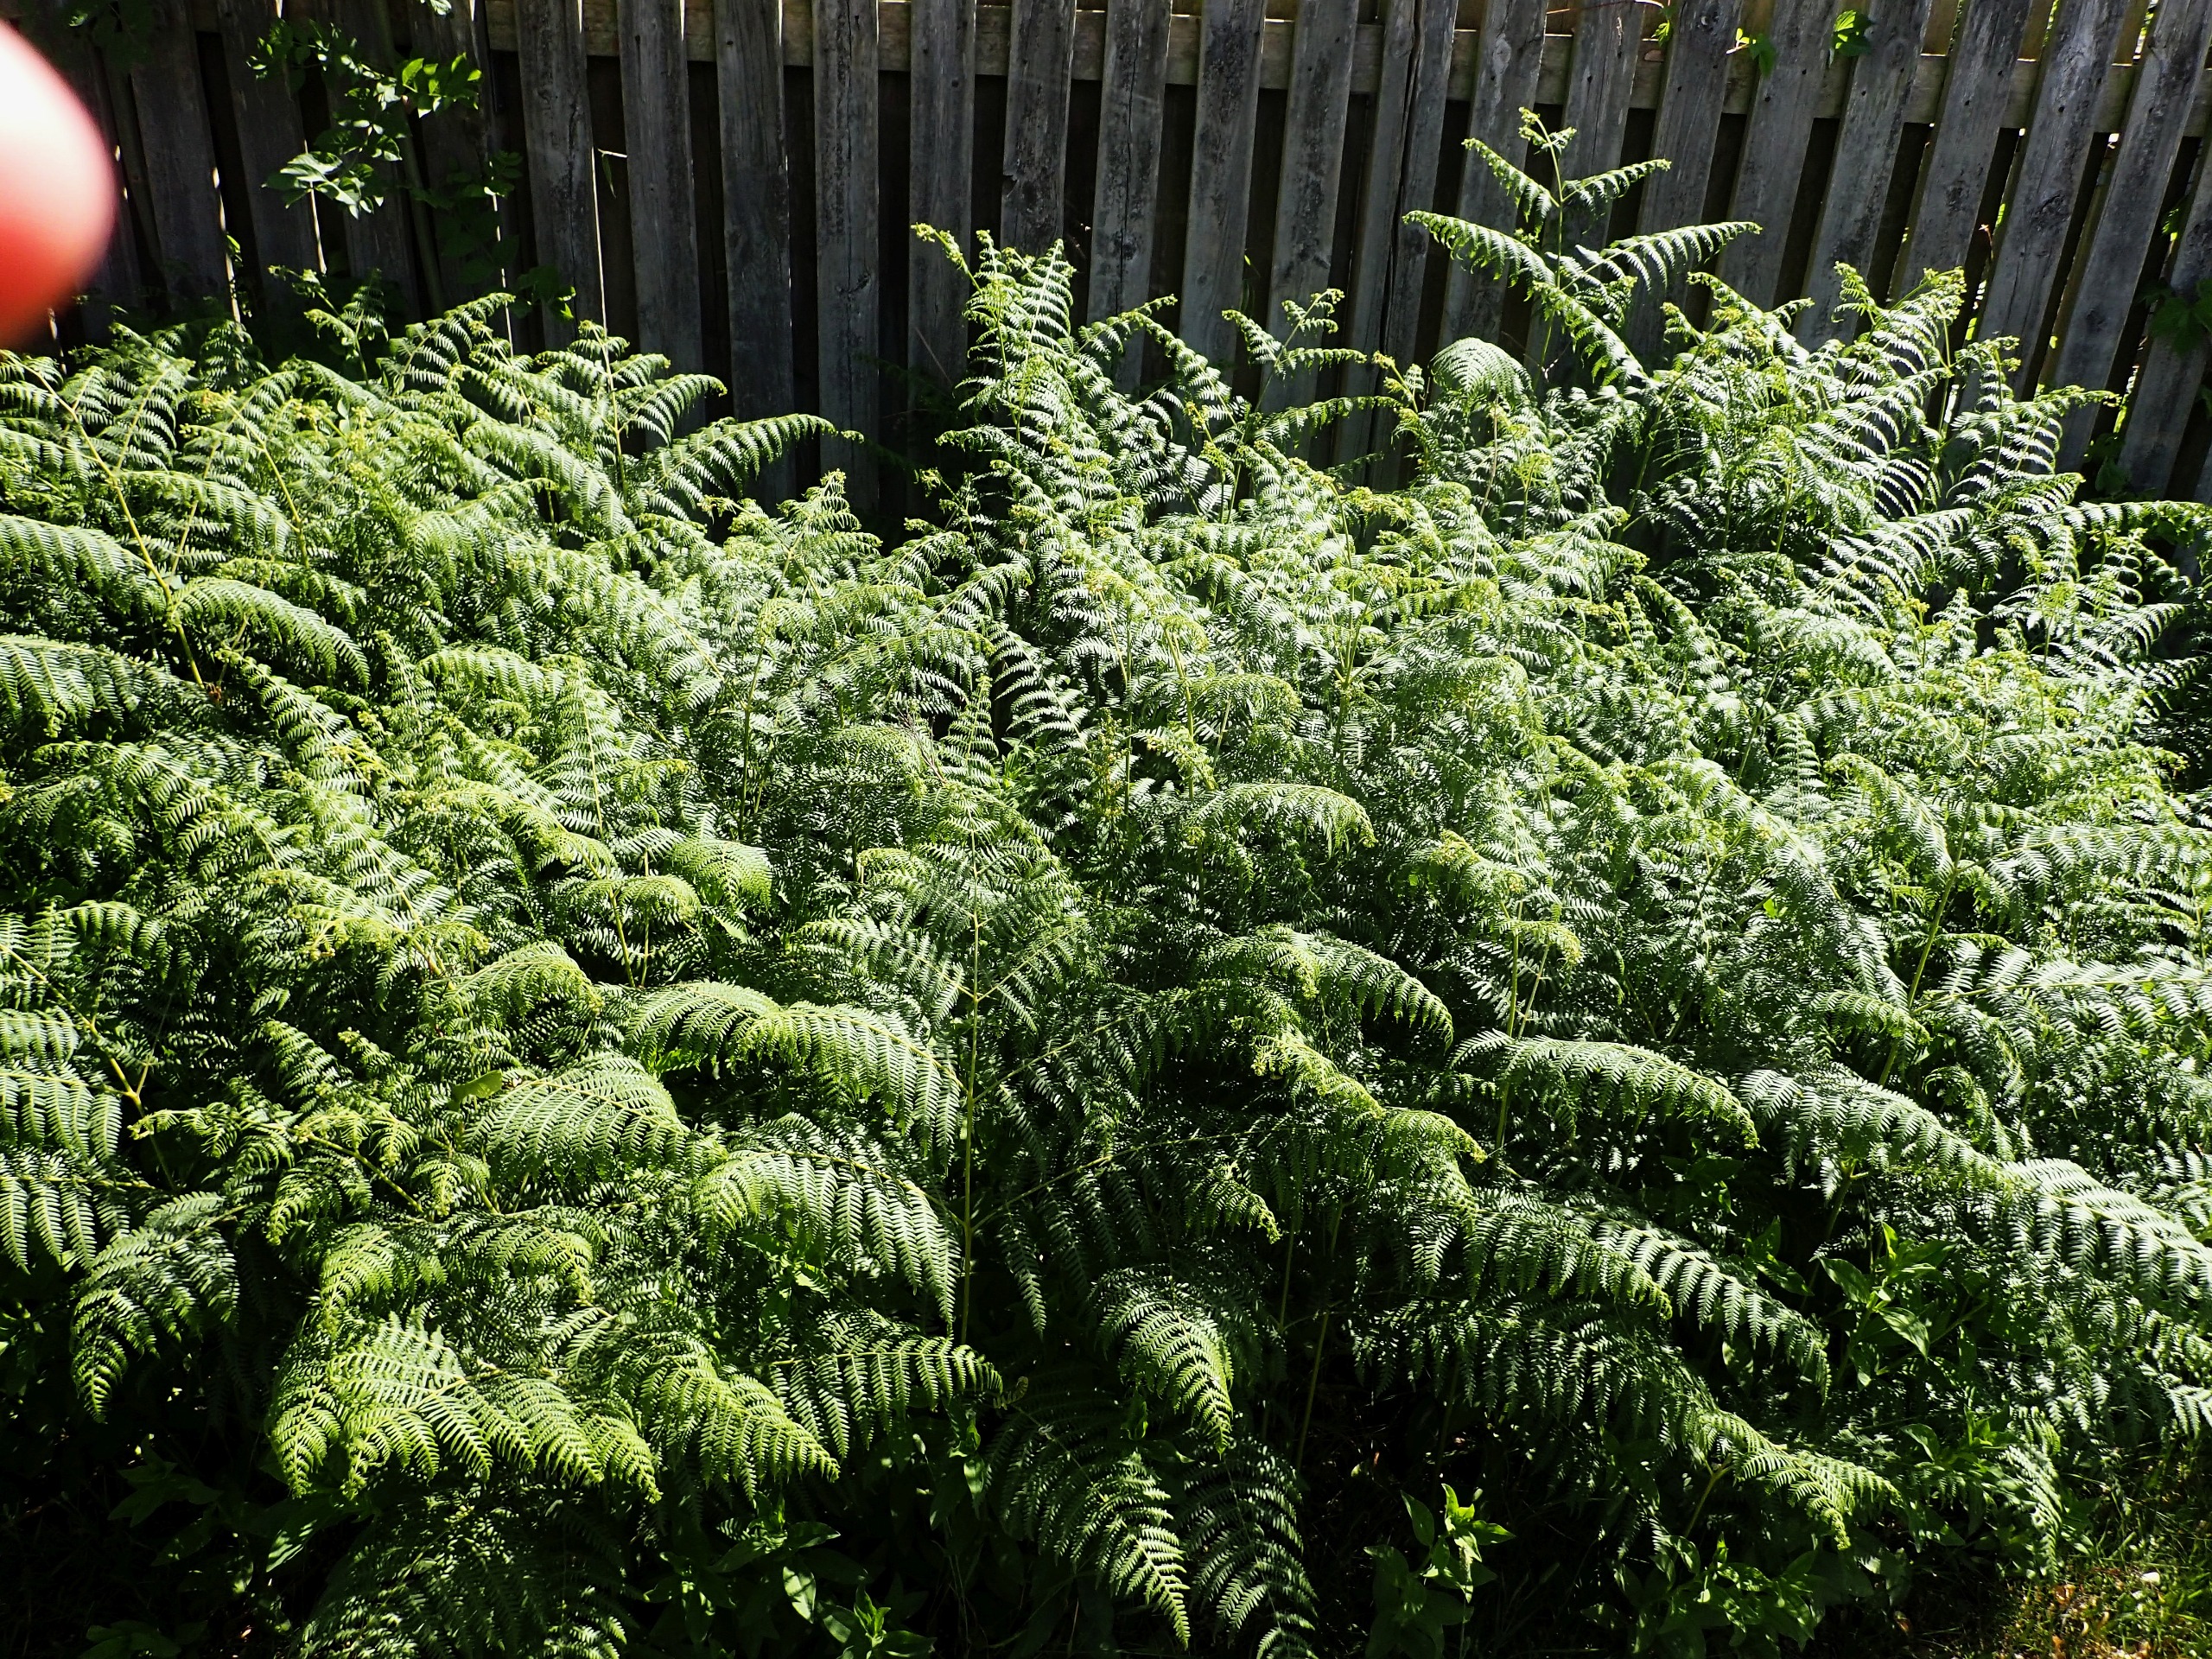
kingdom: Plantae
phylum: Tracheophyta
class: Polypodiopsida
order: Polypodiales
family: Dennstaedtiaceae
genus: Pteridium
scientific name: Pteridium aquilinum
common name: Ørnebregne
